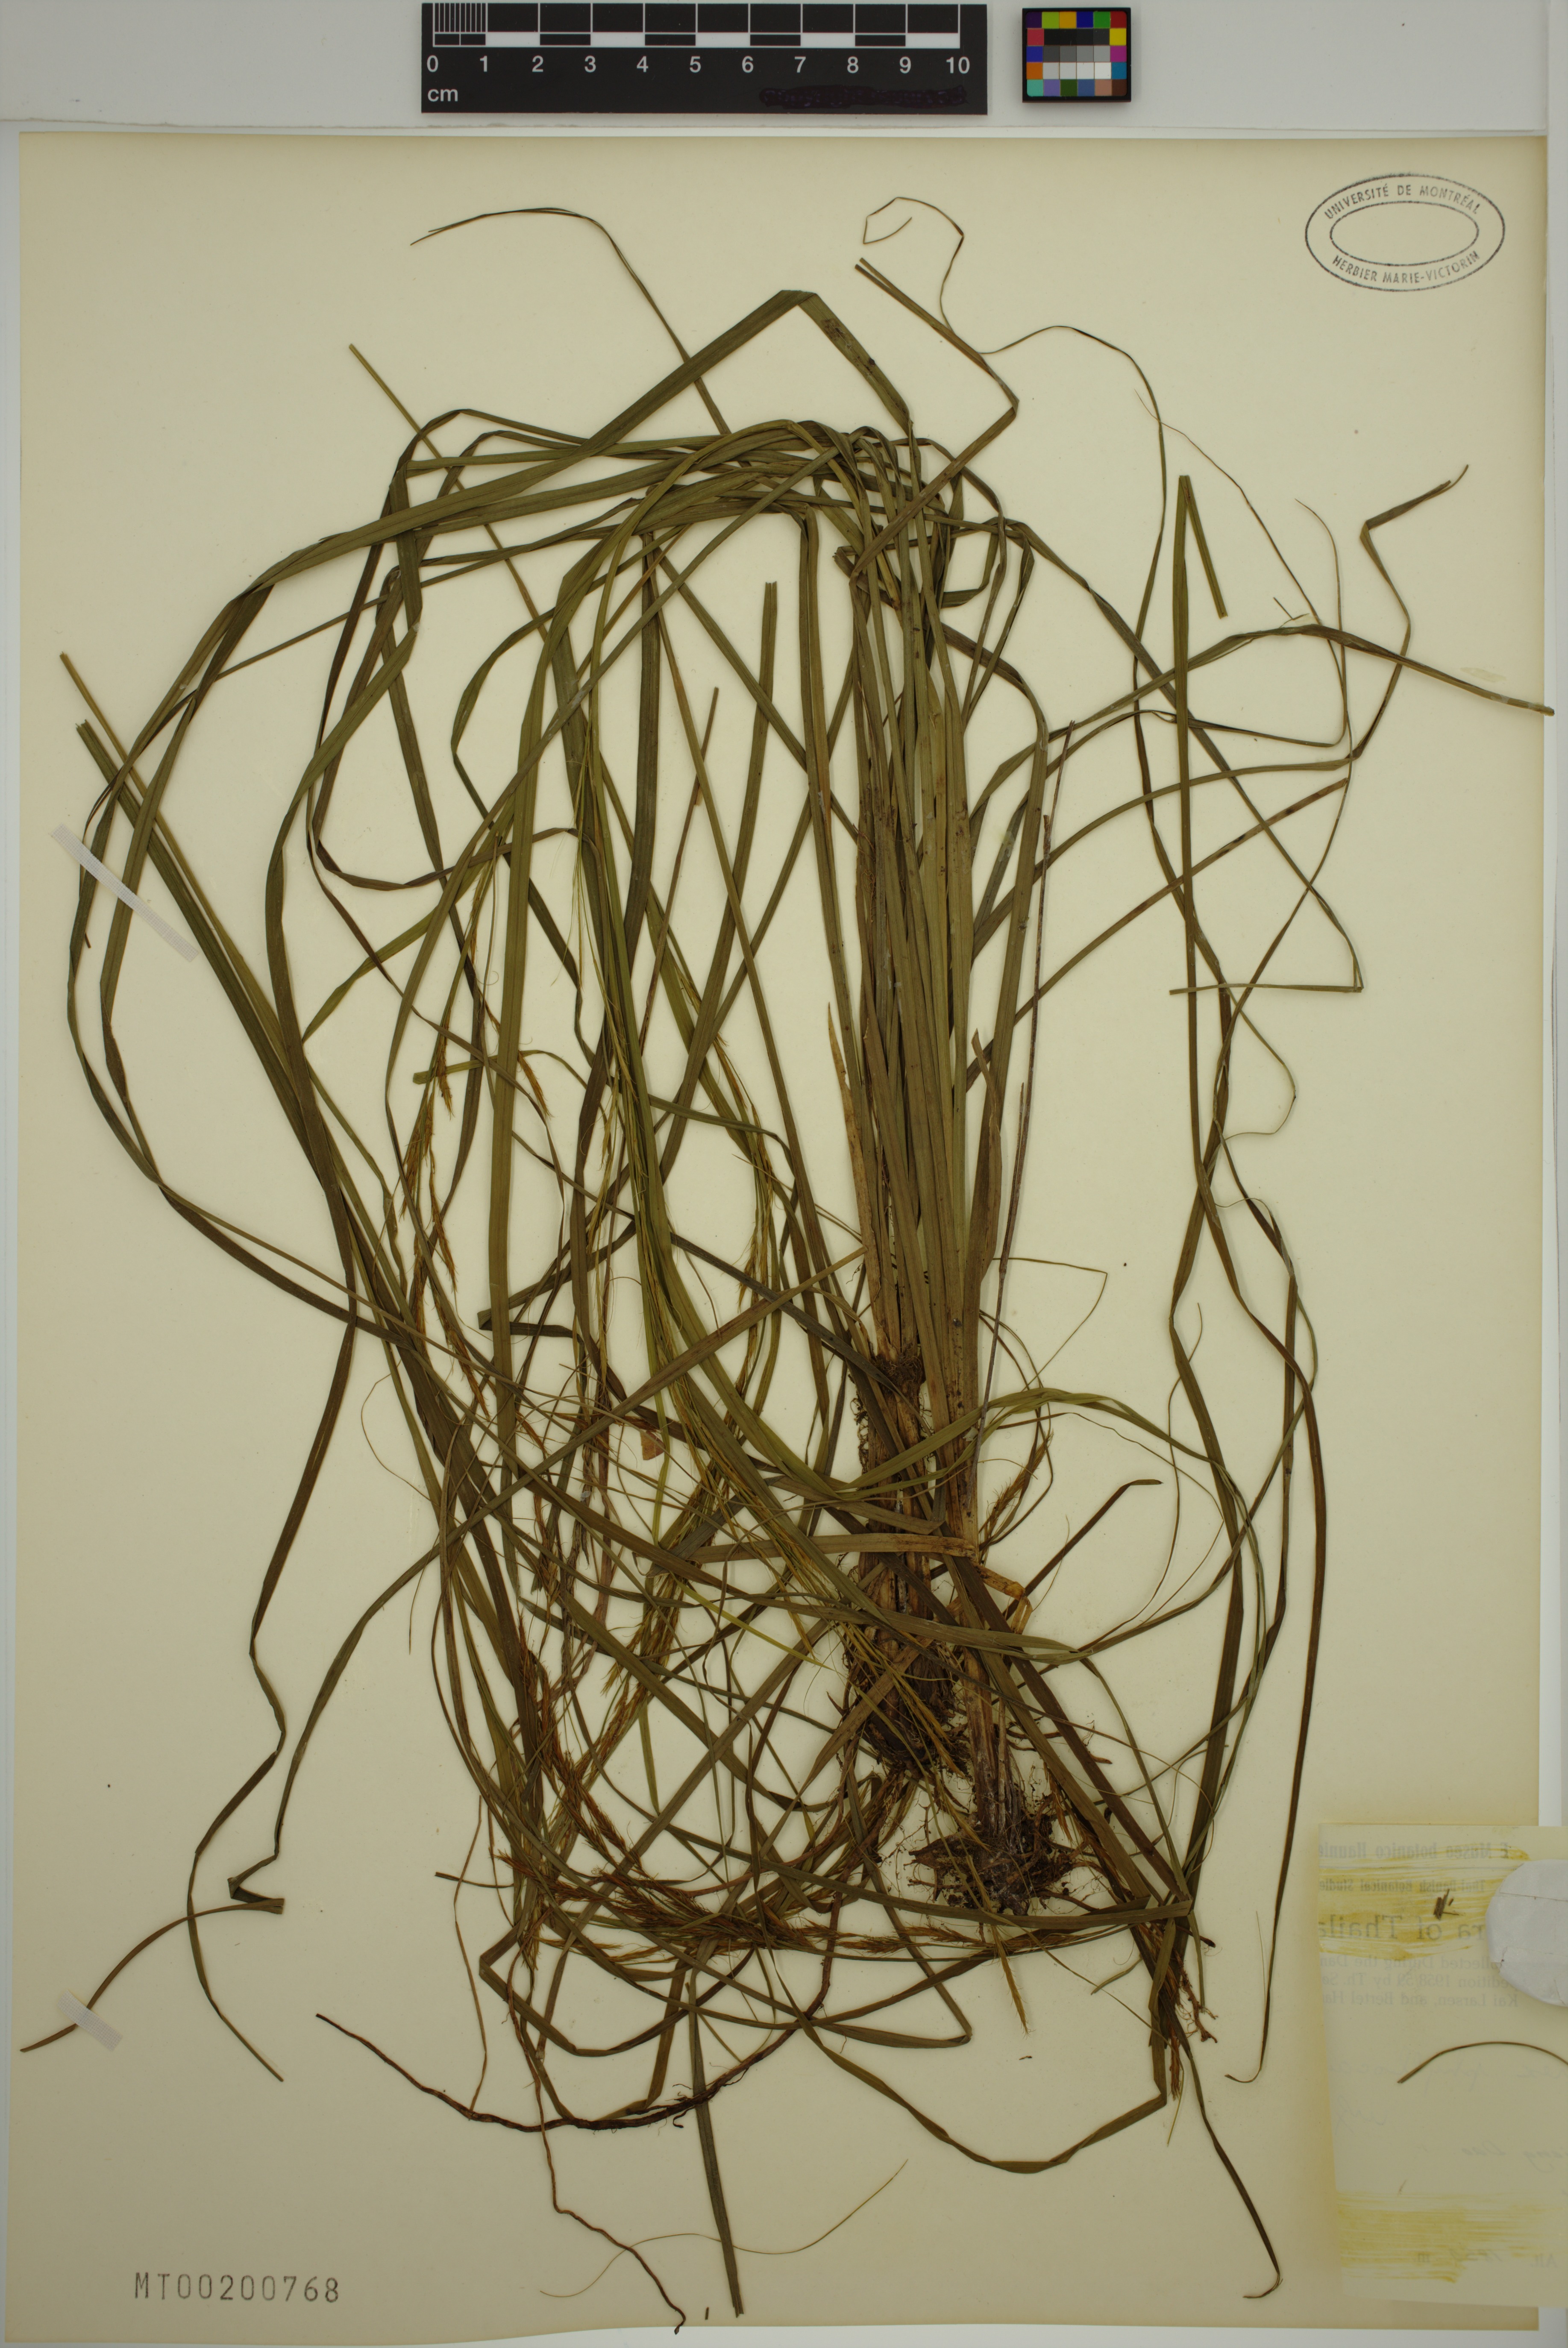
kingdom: Plantae
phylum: Tracheophyta
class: Liliopsida
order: Poales
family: Cyperaceae
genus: Carex
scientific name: Carex phyllocaula
